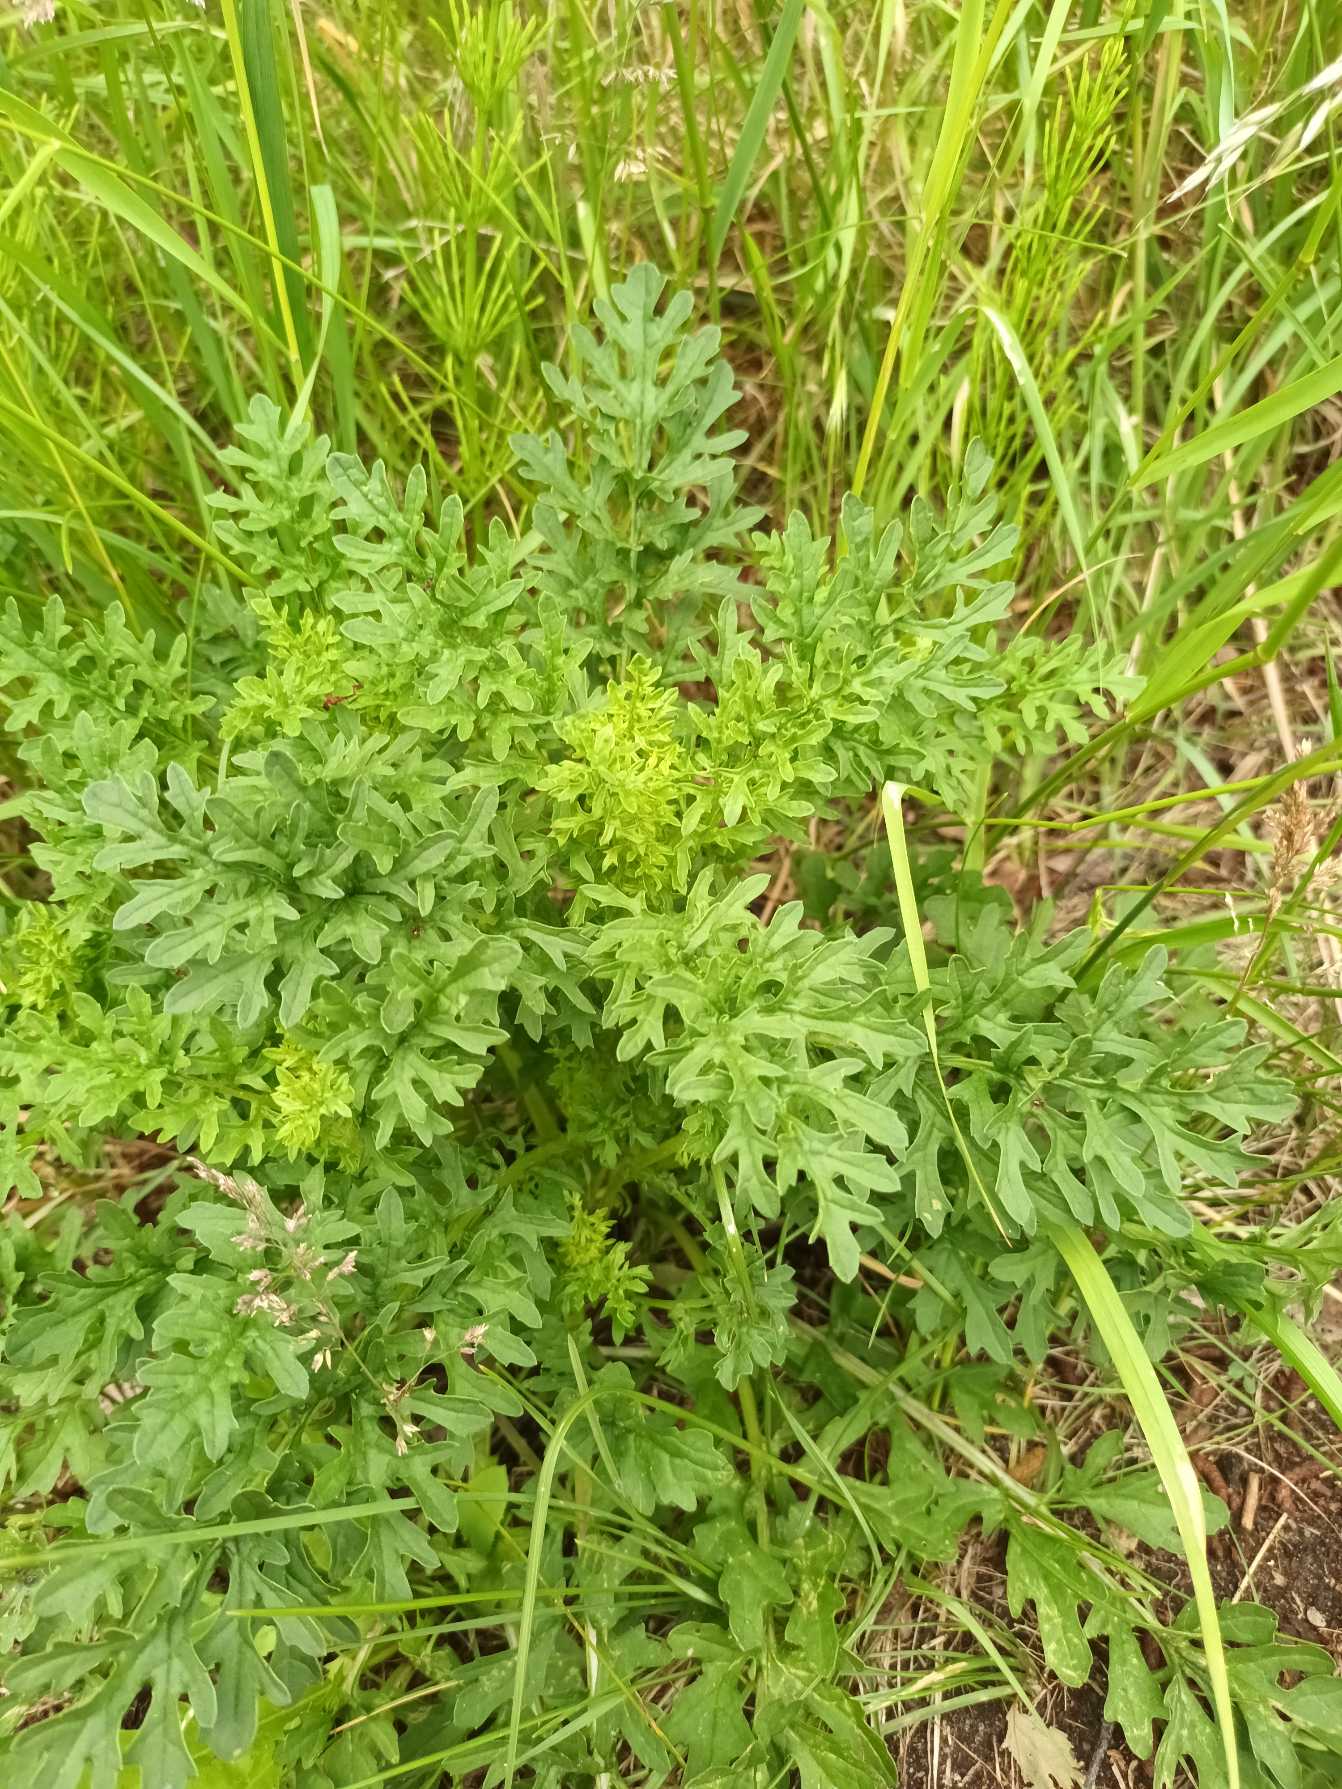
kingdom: Plantae
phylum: Tracheophyta
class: Magnoliopsida
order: Asterales
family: Asteraceae
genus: Jacobaea
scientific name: Jacobaea vulgaris
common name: Eng-brandbæger
